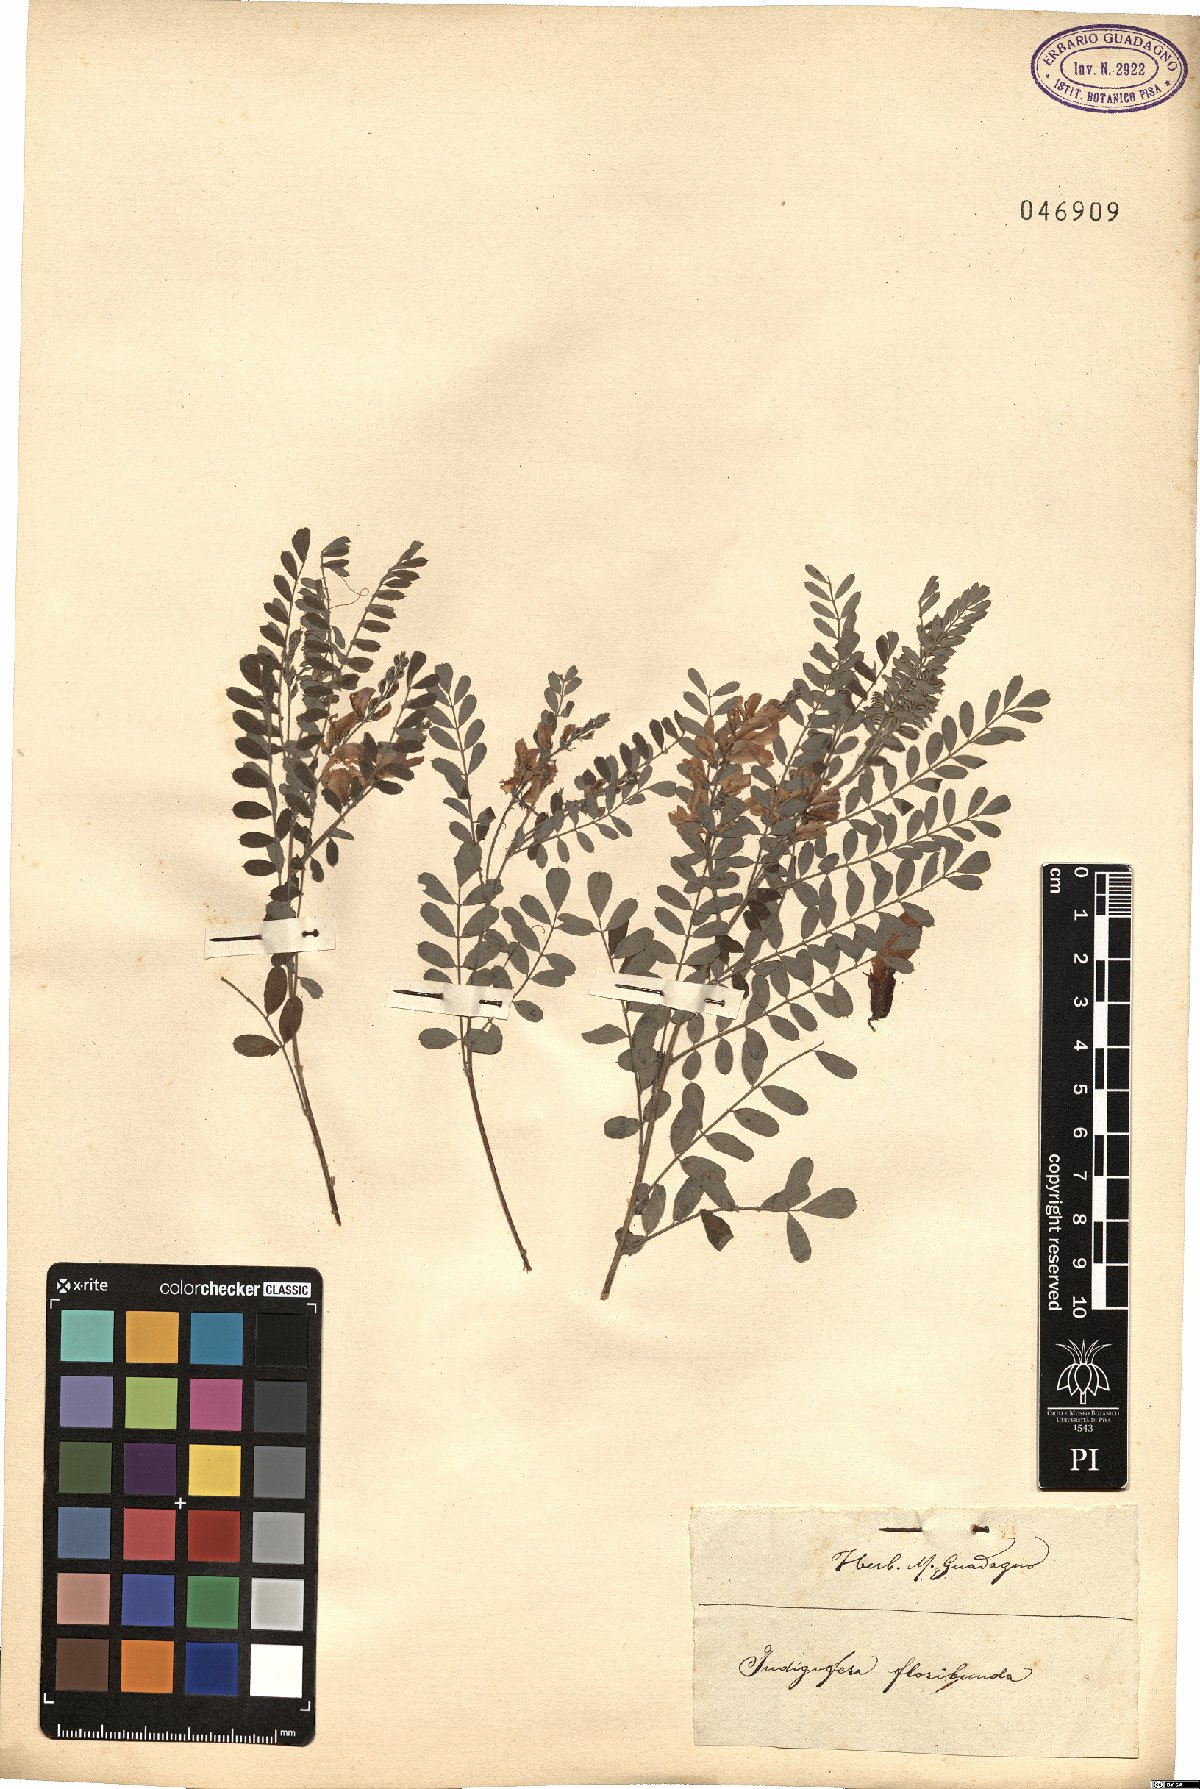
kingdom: Plantae
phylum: Tracheophyta
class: Magnoliopsida
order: Fabales
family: Fabaceae
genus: Indigofera
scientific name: Indigofera floribunda
